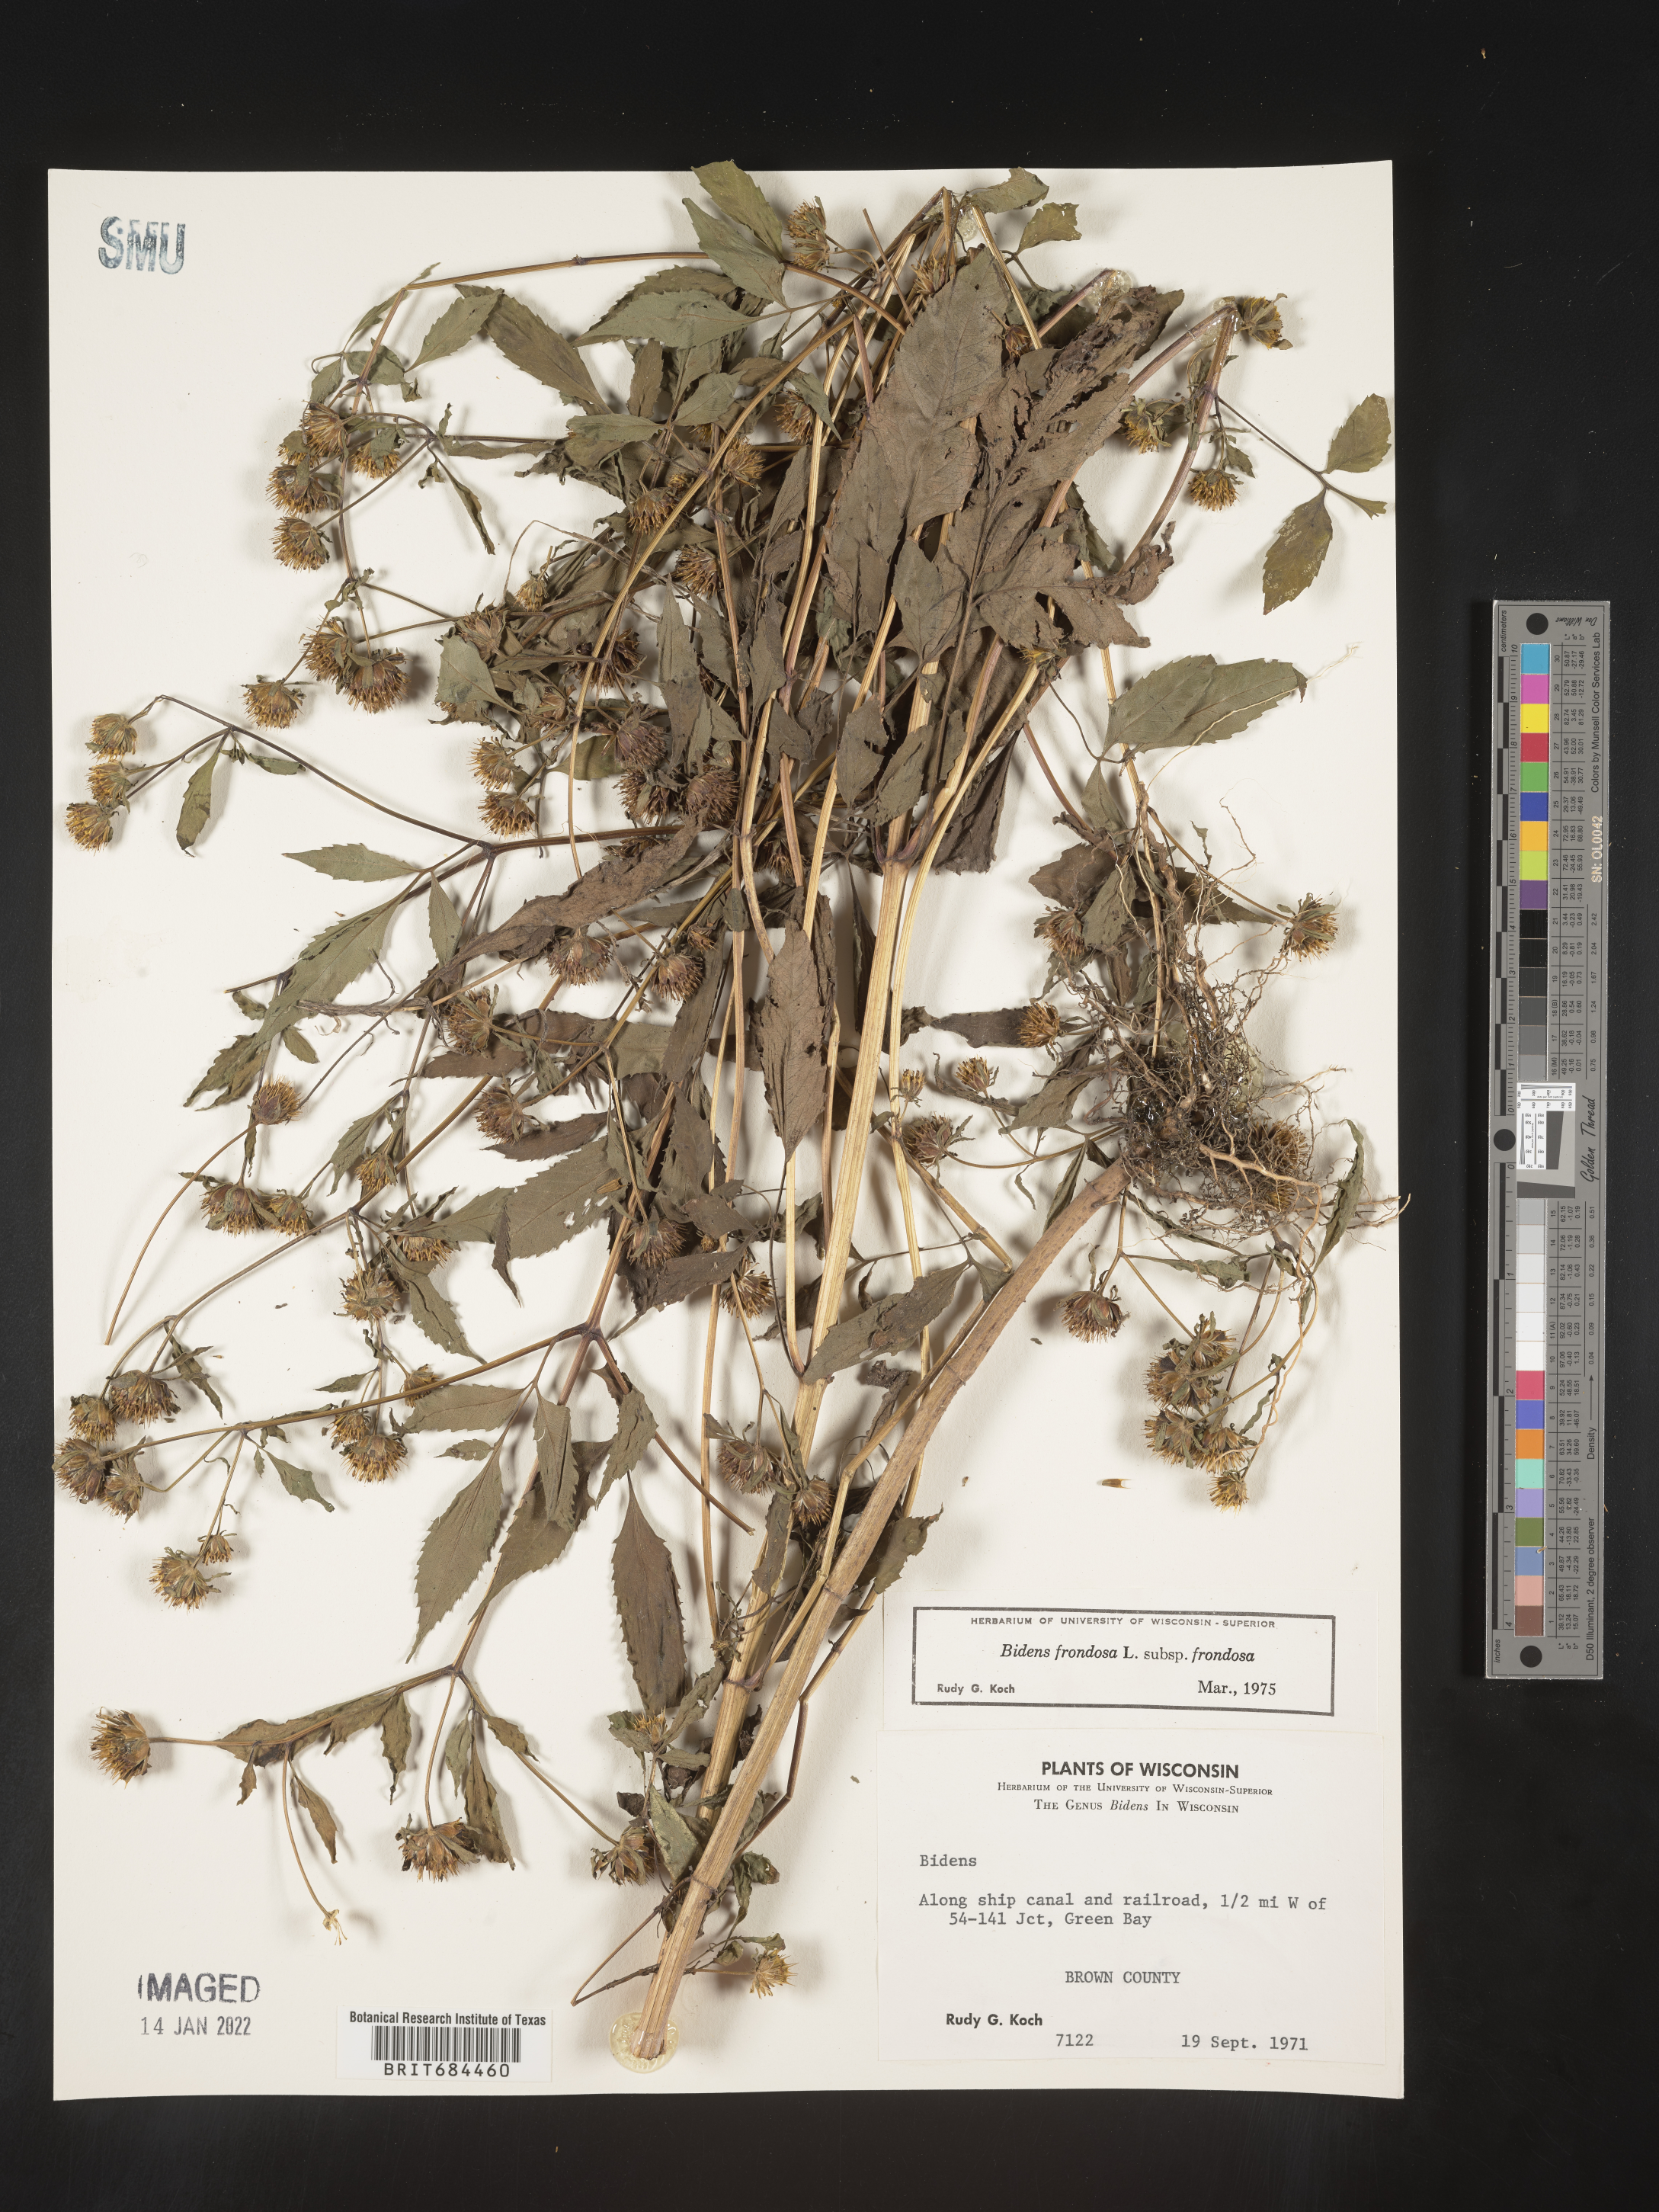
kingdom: Plantae
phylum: Tracheophyta
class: Magnoliopsida
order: Asterales
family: Asteraceae
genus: Bidens
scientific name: Bidens frondosa
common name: Beggarticks
